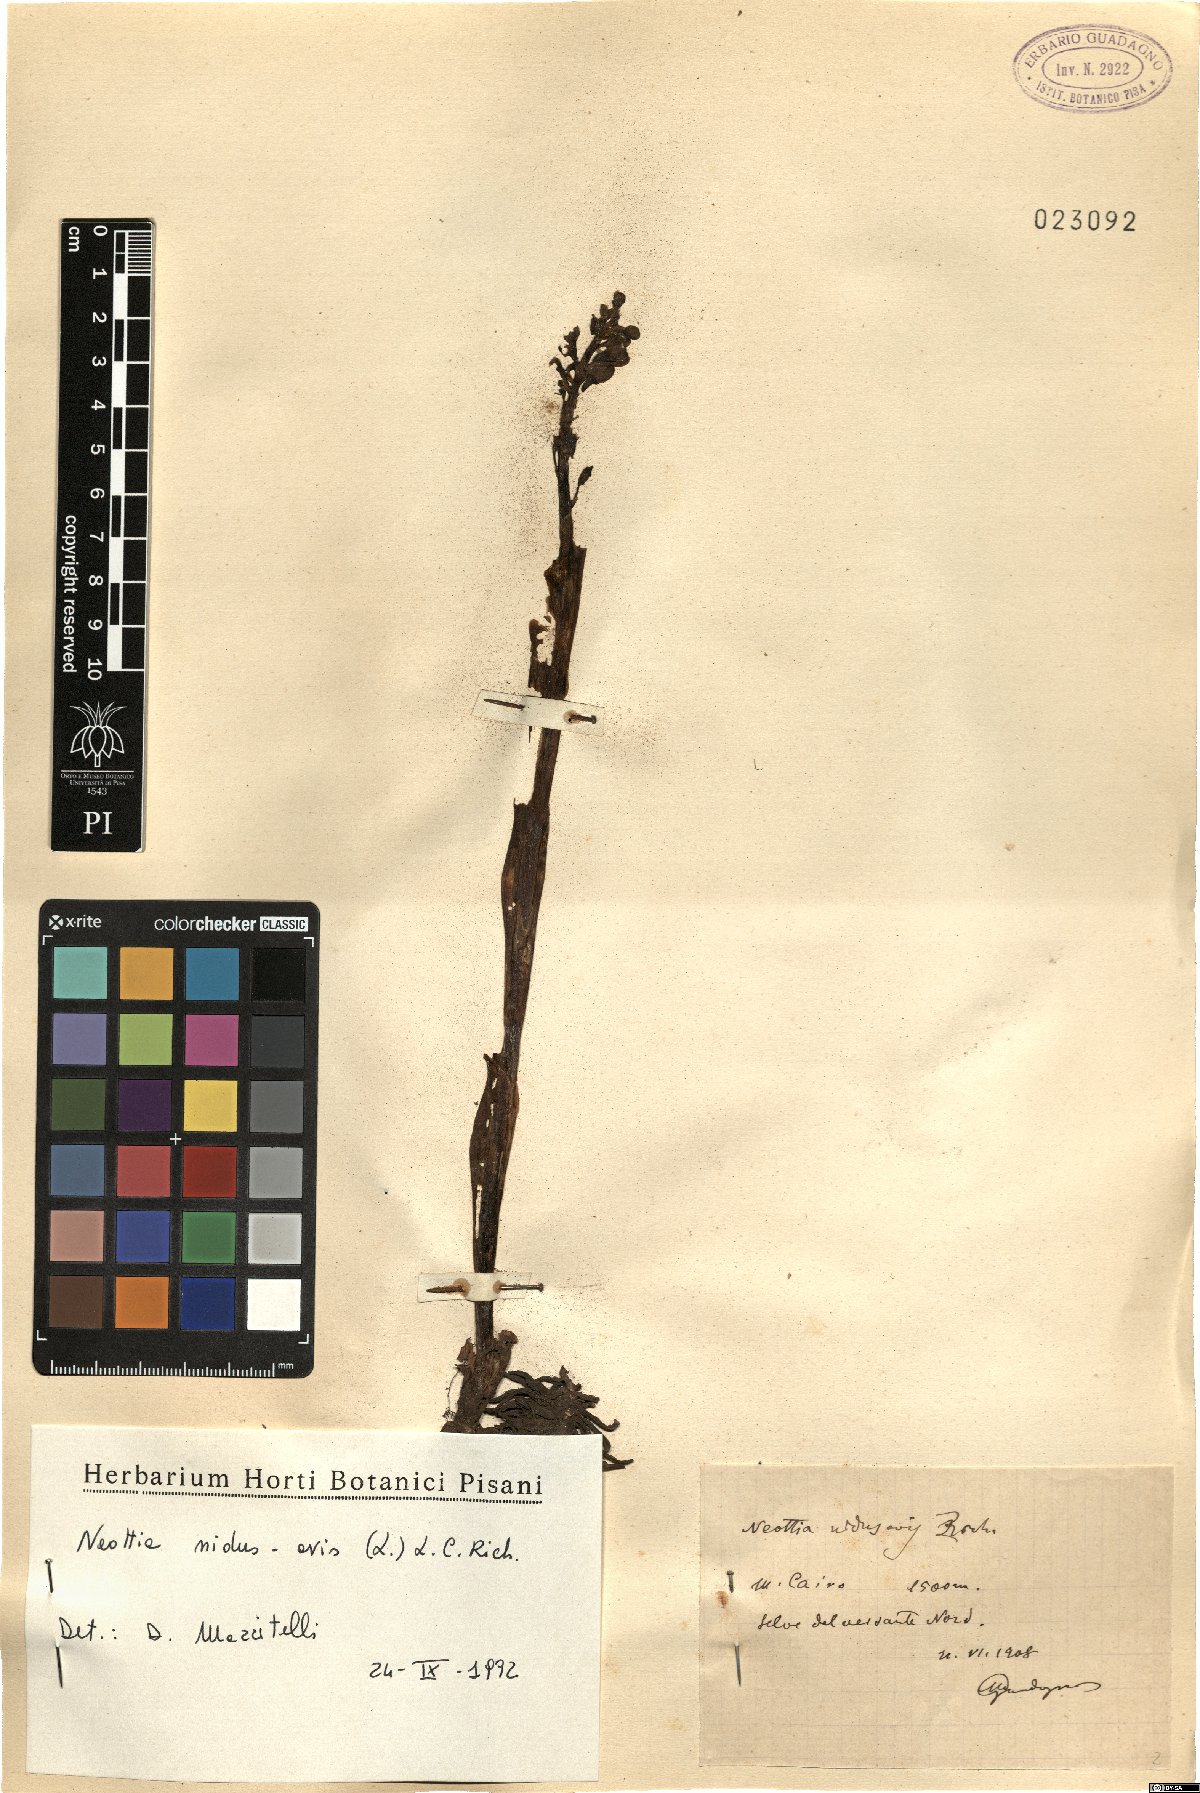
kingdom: Plantae
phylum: Tracheophyta
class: Liliopsida
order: Asparagales
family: Orchidaceae
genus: Neottia
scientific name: Neottia nidus-avis
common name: Bird's-nest orchid
